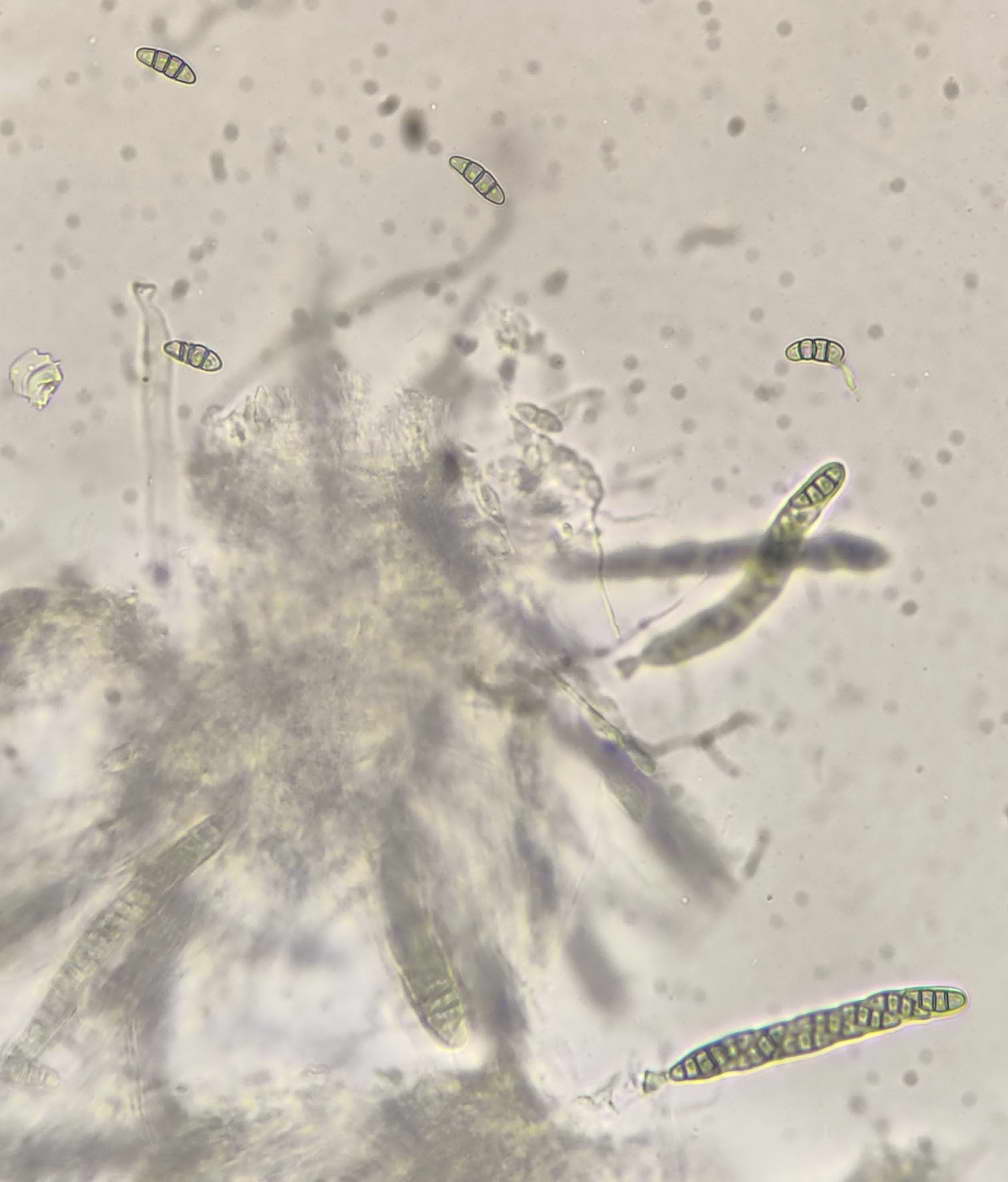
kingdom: Fungi
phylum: Ascomycota
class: Dothideomycetes
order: Pleosporales
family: Melanommataceae
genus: Melanomma
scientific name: Melanomma pulvis-pyrius
